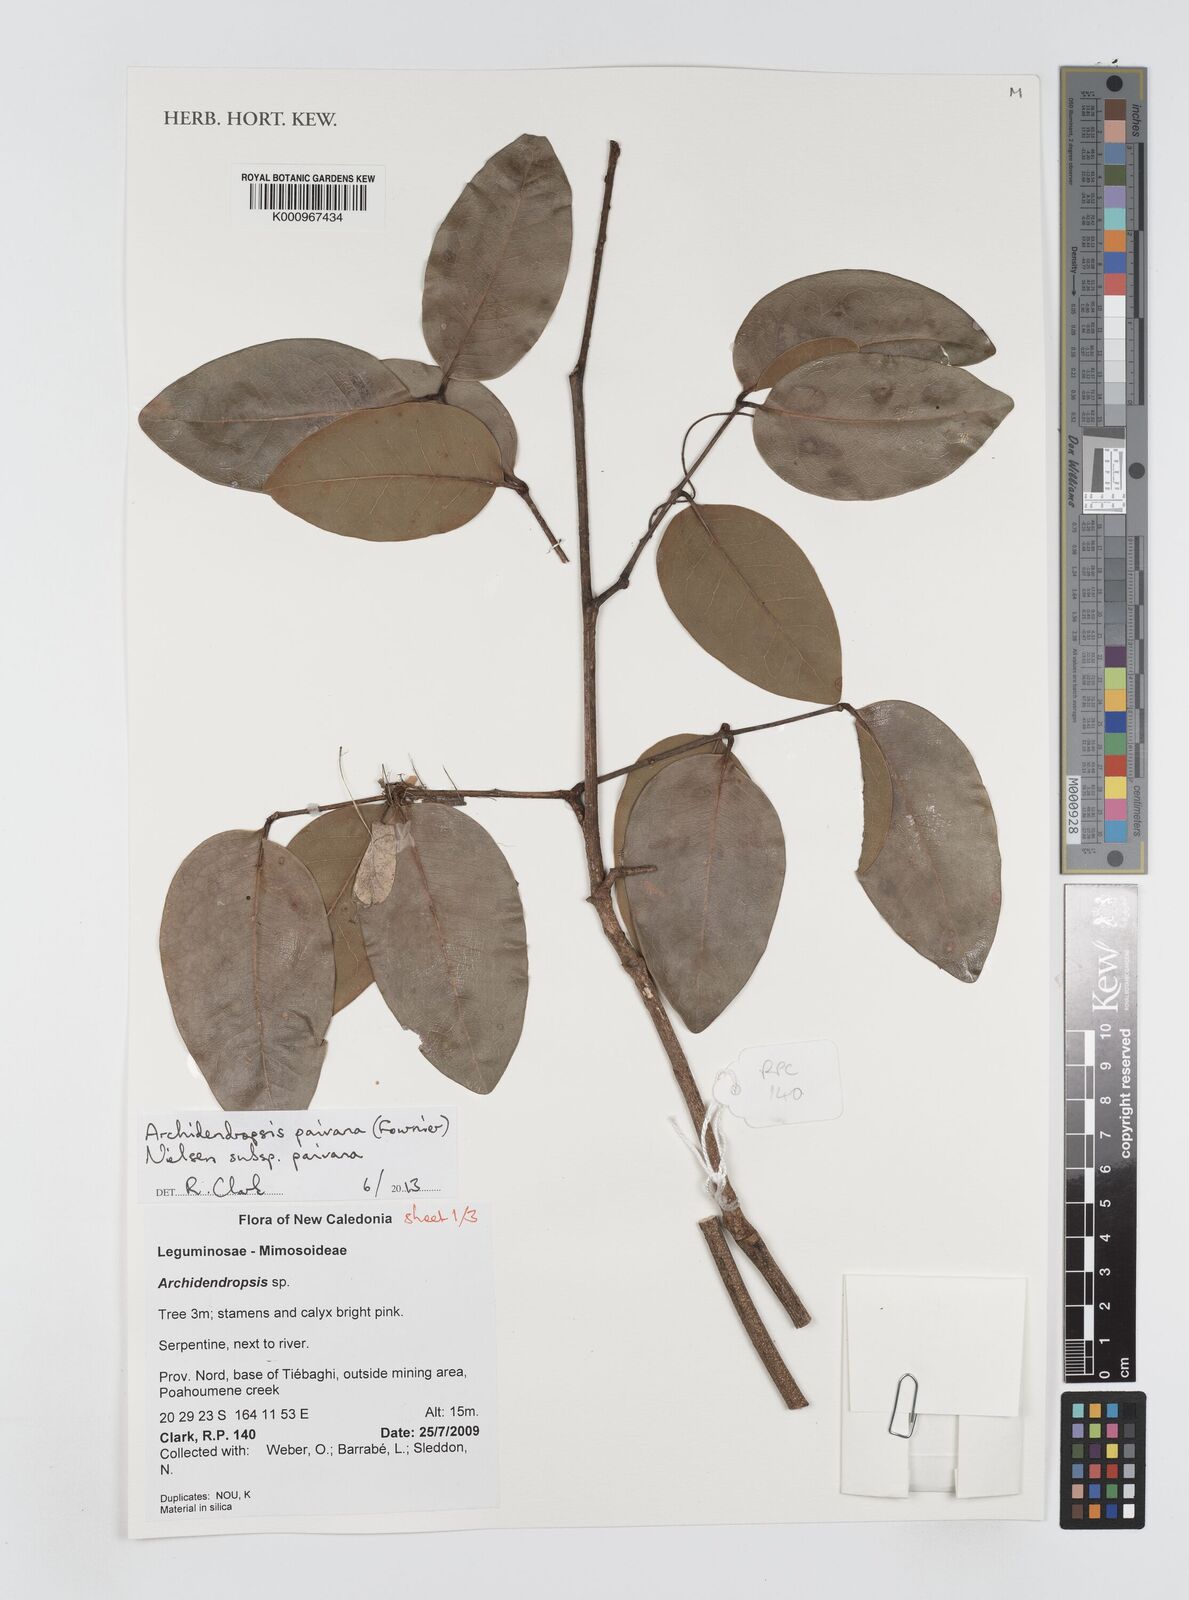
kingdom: Plantae
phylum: Tracheophyta
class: Magnoliopsida
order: Fabales
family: Fabaceae
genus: Archidendropsis
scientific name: Archidendropsis paivana
